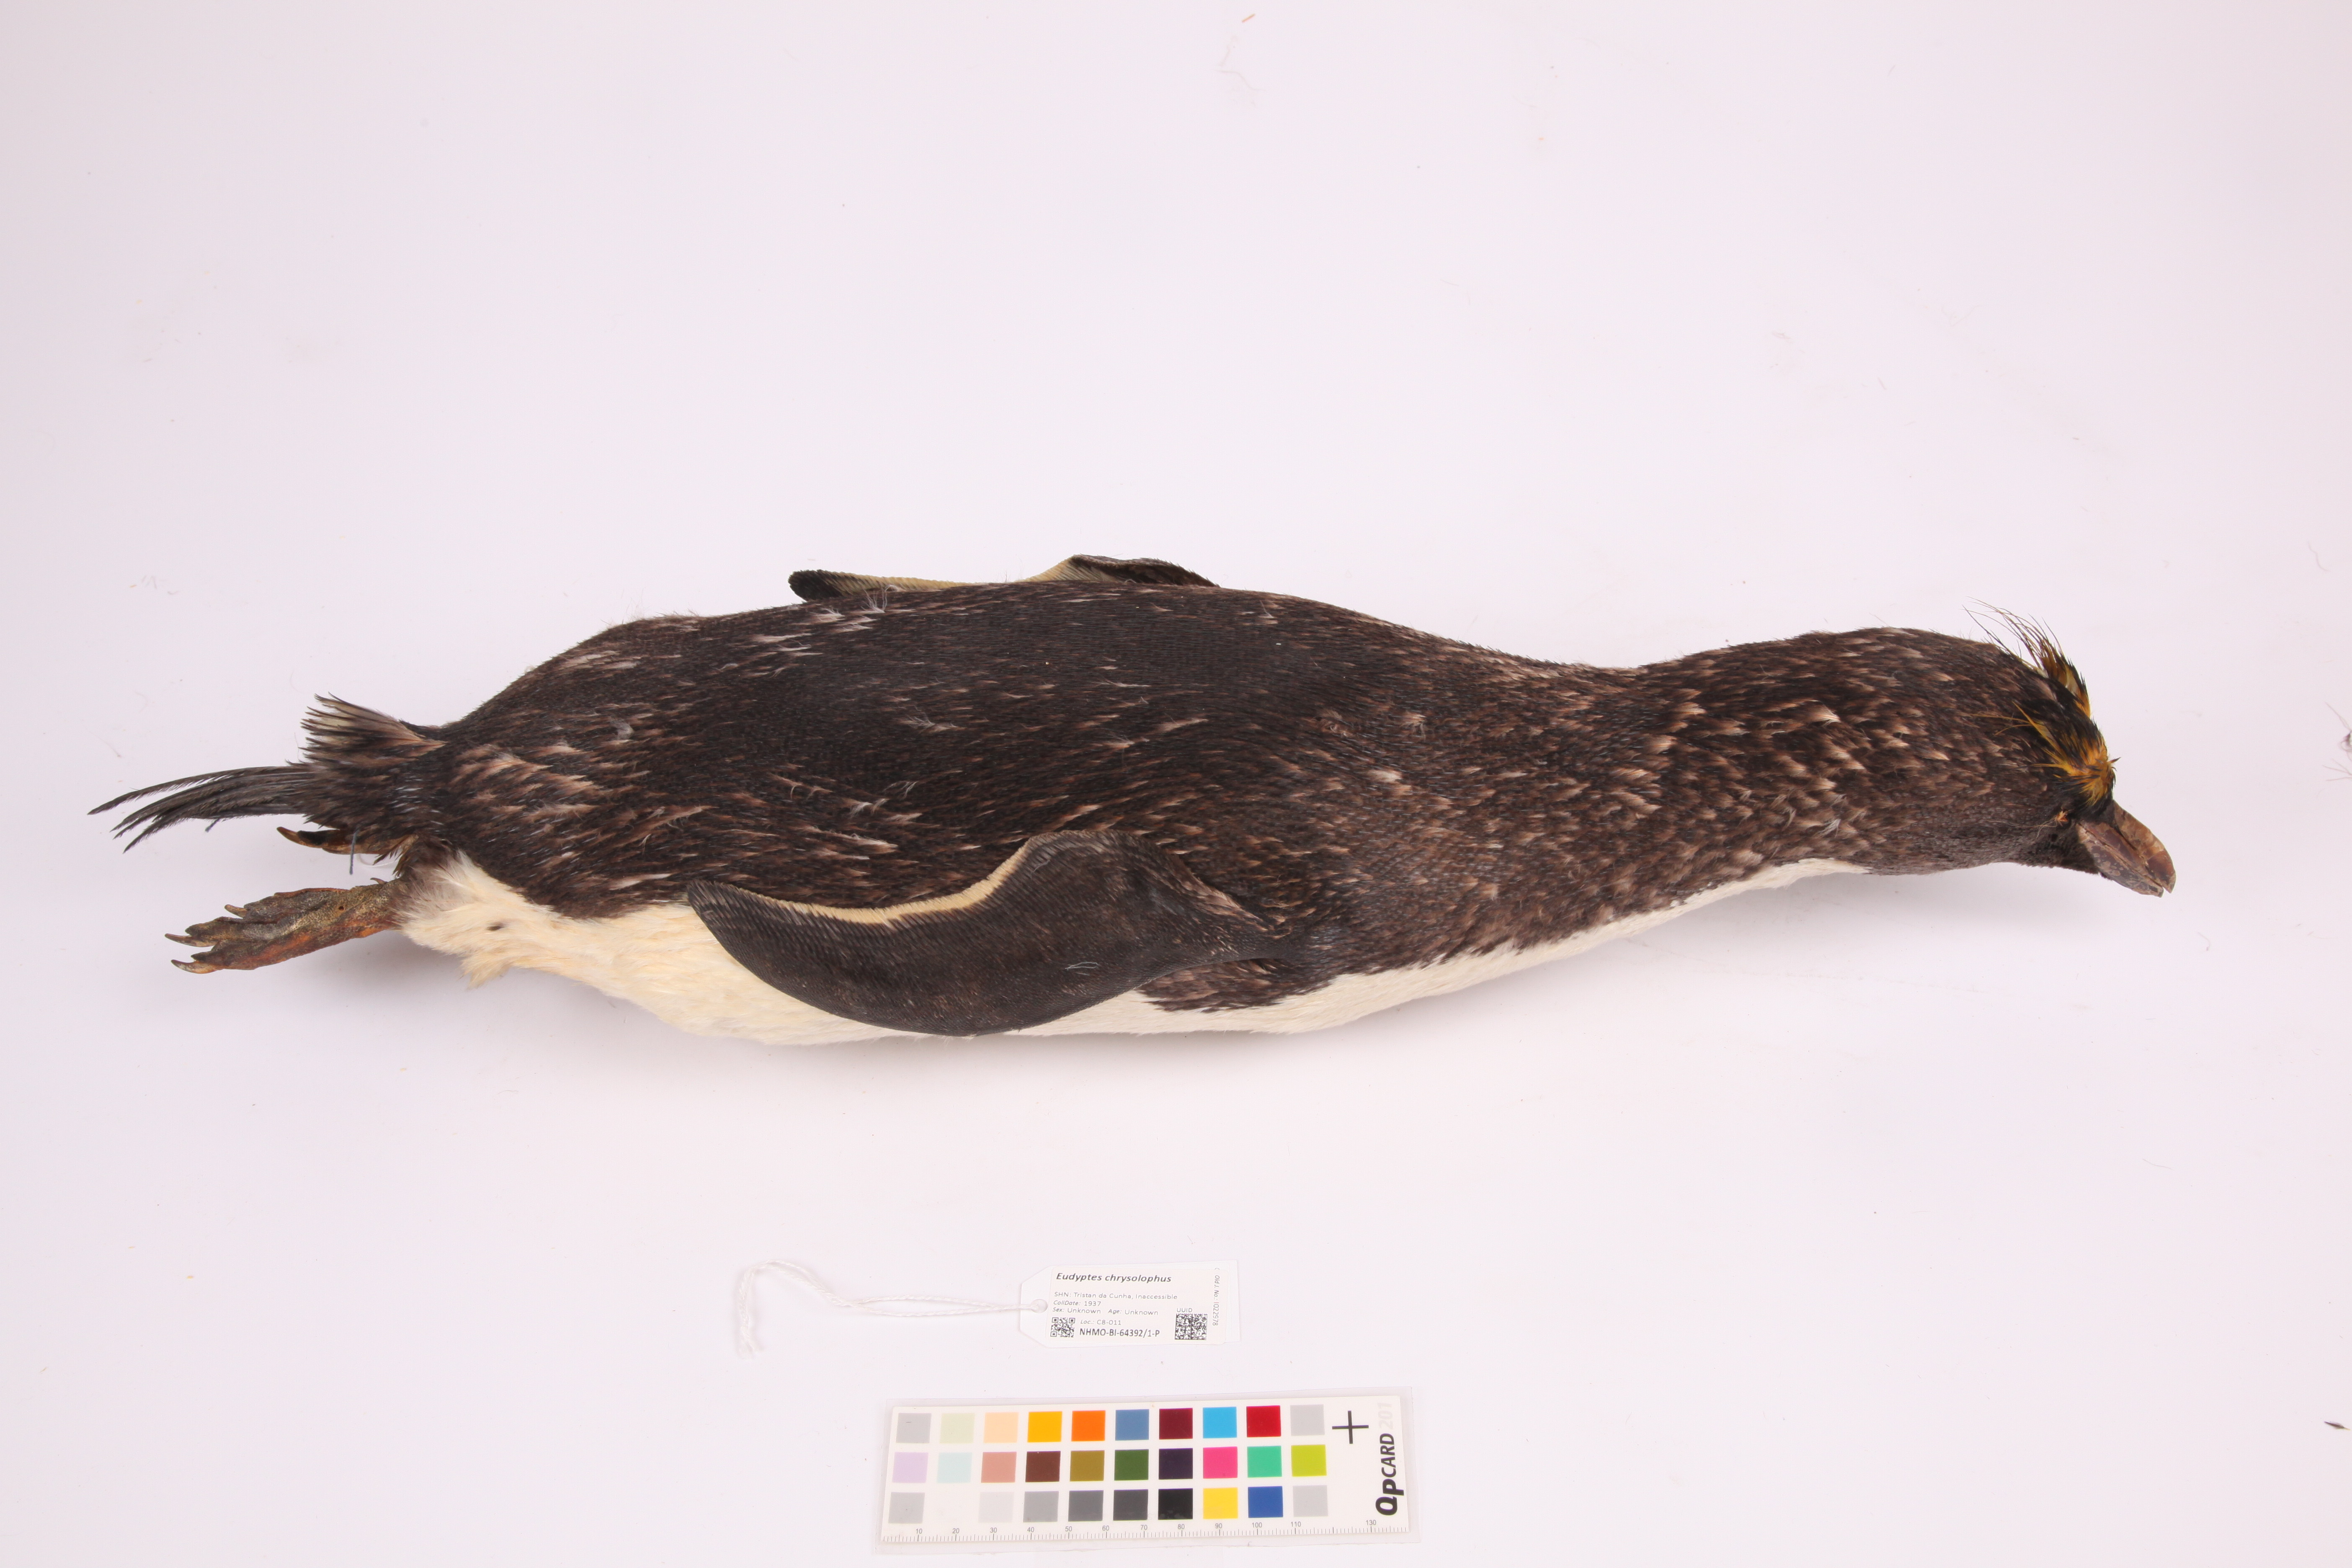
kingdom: Animalia
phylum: Chordata
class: Aves
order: Sphenisciformes
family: Spheniscidae
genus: Eudyptes
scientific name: Eudyptes chrysolophus
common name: Macaroni penguin
